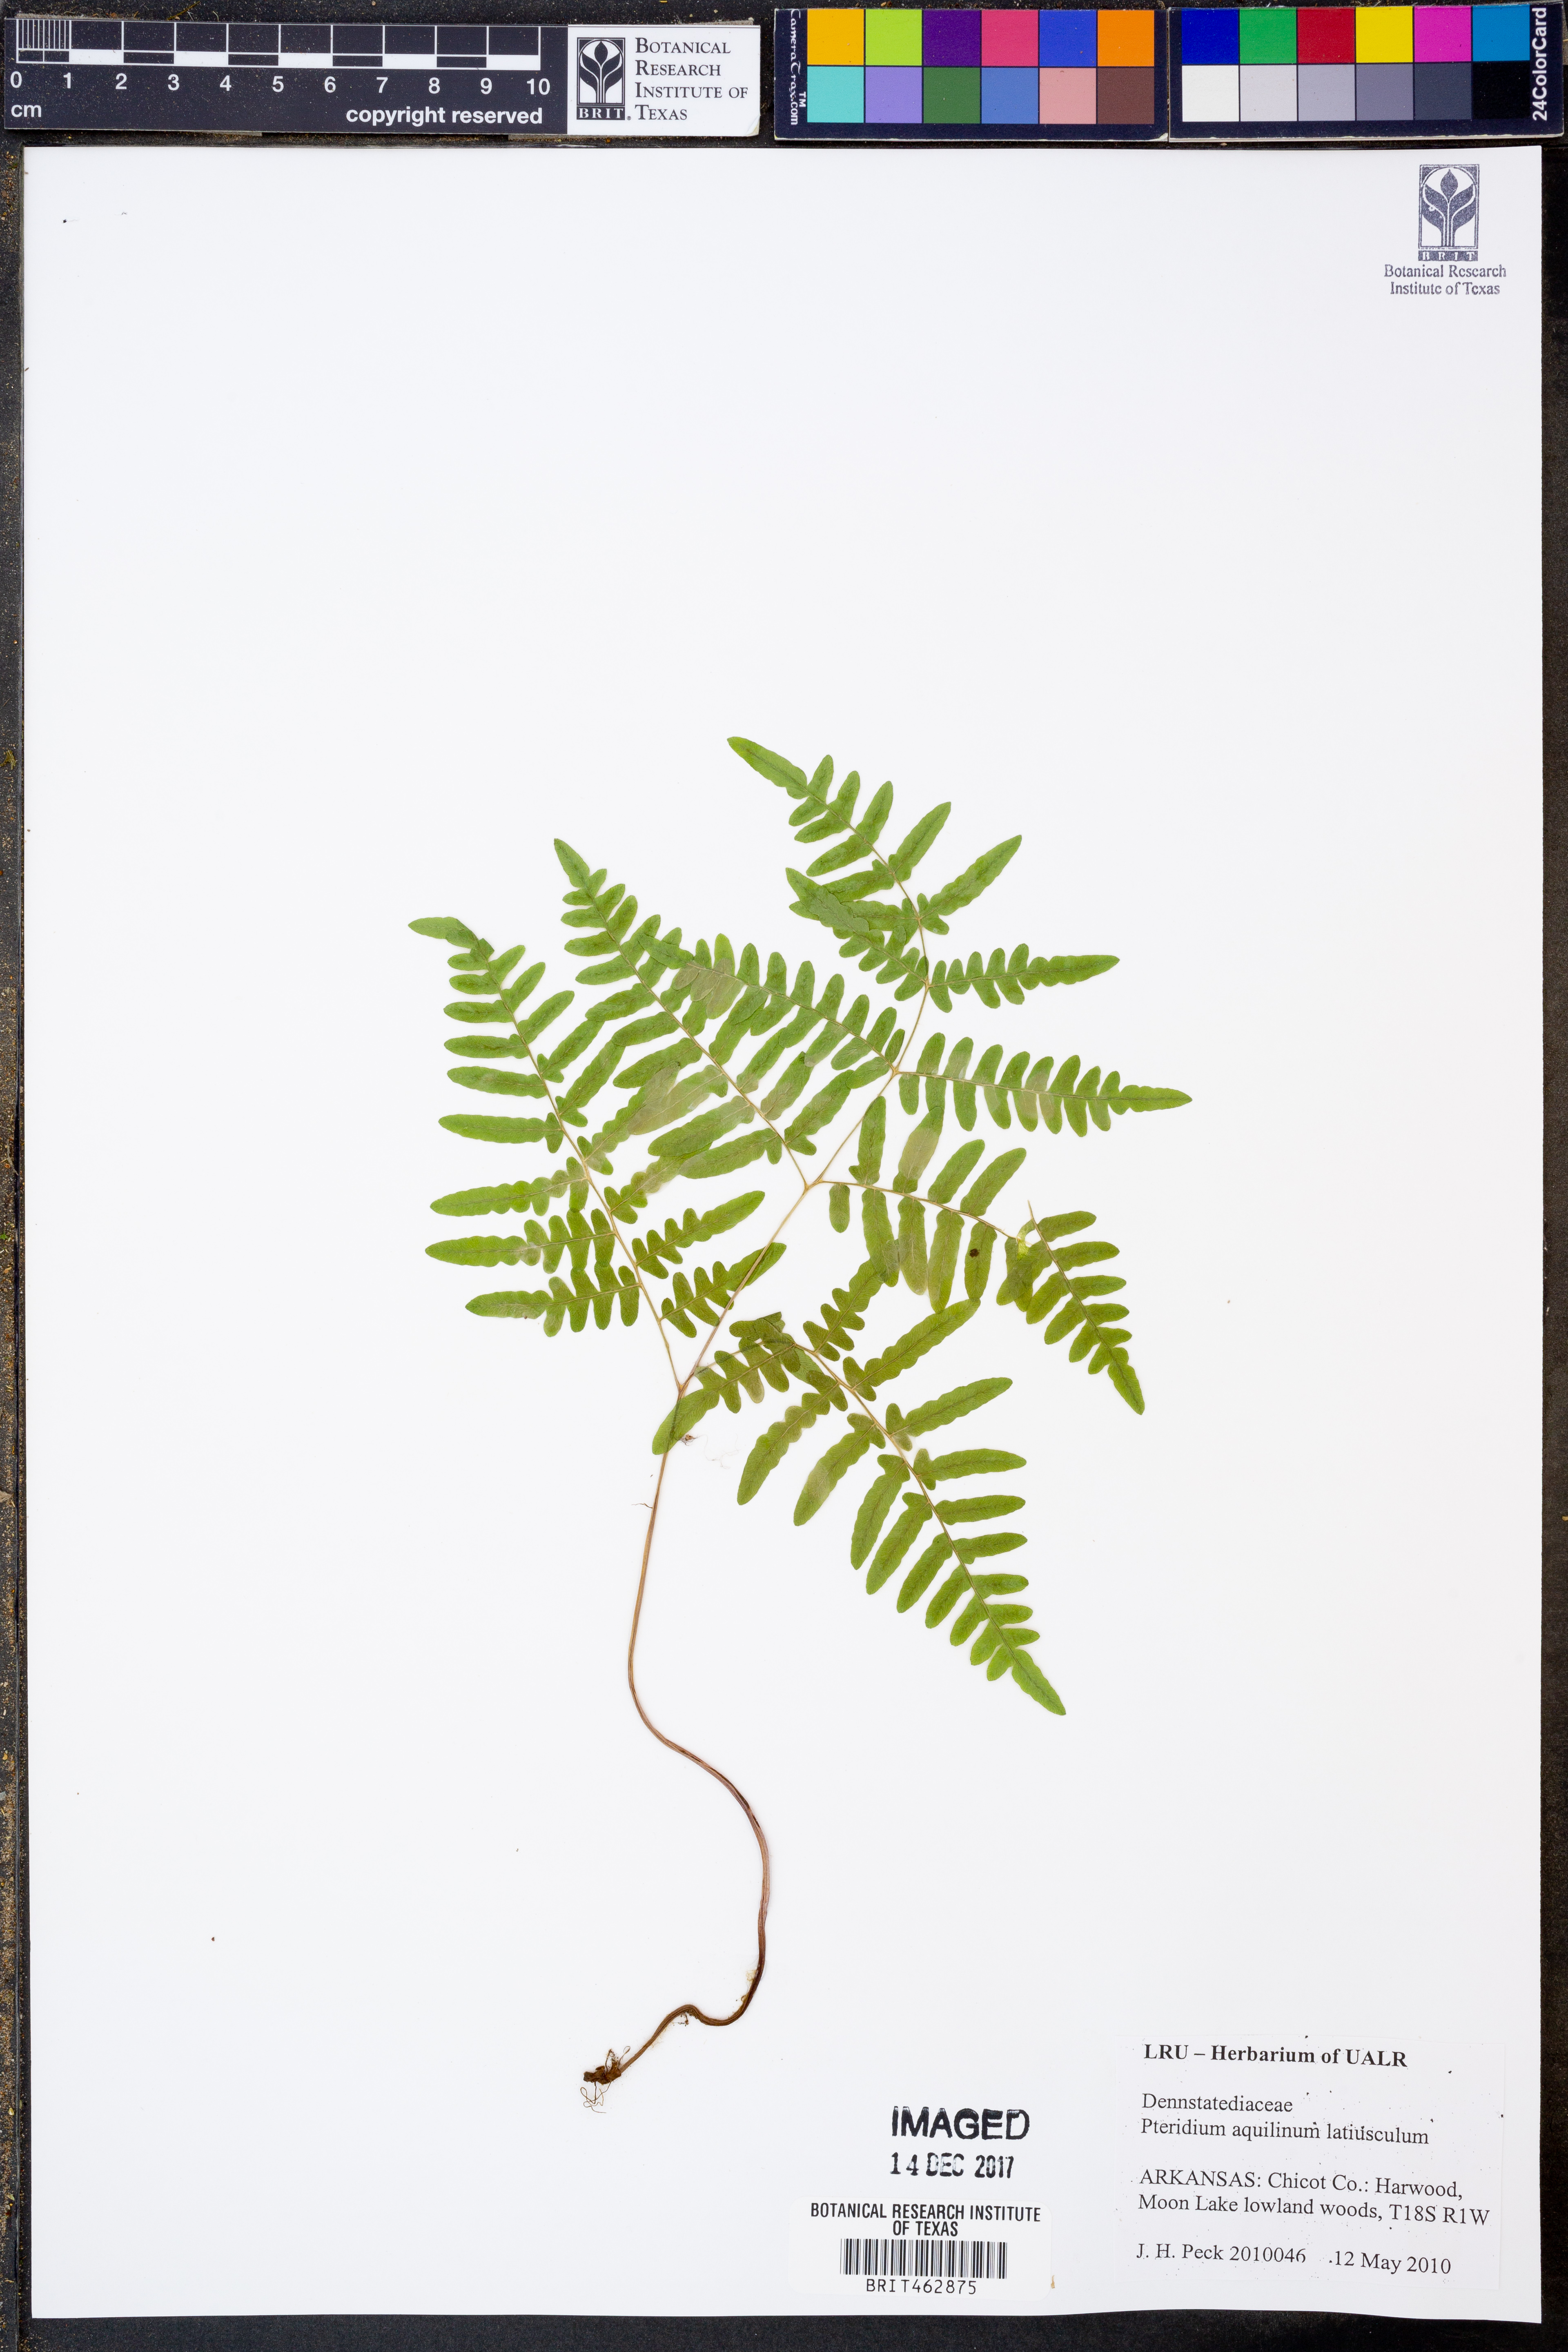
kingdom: Plantae
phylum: Tracheophyta
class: Polypodiopsida
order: Polypodiales
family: Dennstaedtiaceae
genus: Pteridium
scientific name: Pteridium aquilinum
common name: Bracken
